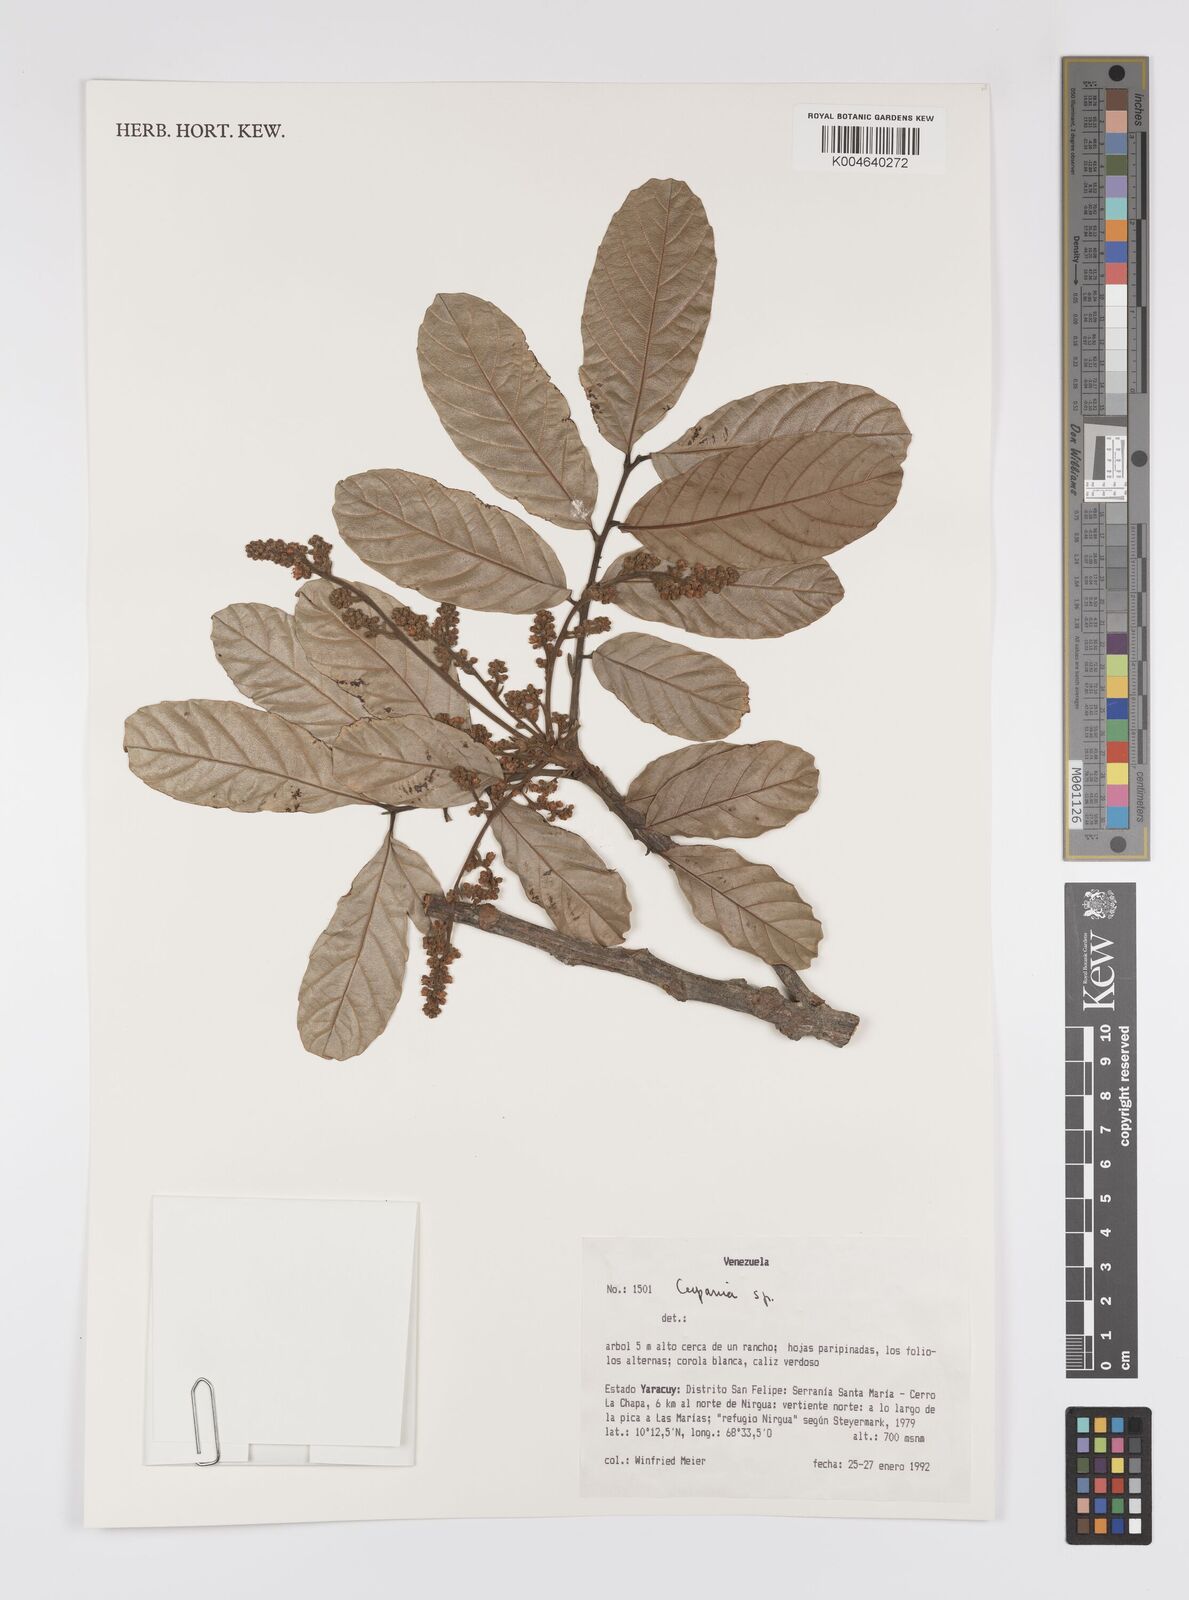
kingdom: Plantae
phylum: Tracheophyta
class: Magnoliopsida
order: Sapindales
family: Sapindaceae
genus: Cupania
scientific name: Cupania
